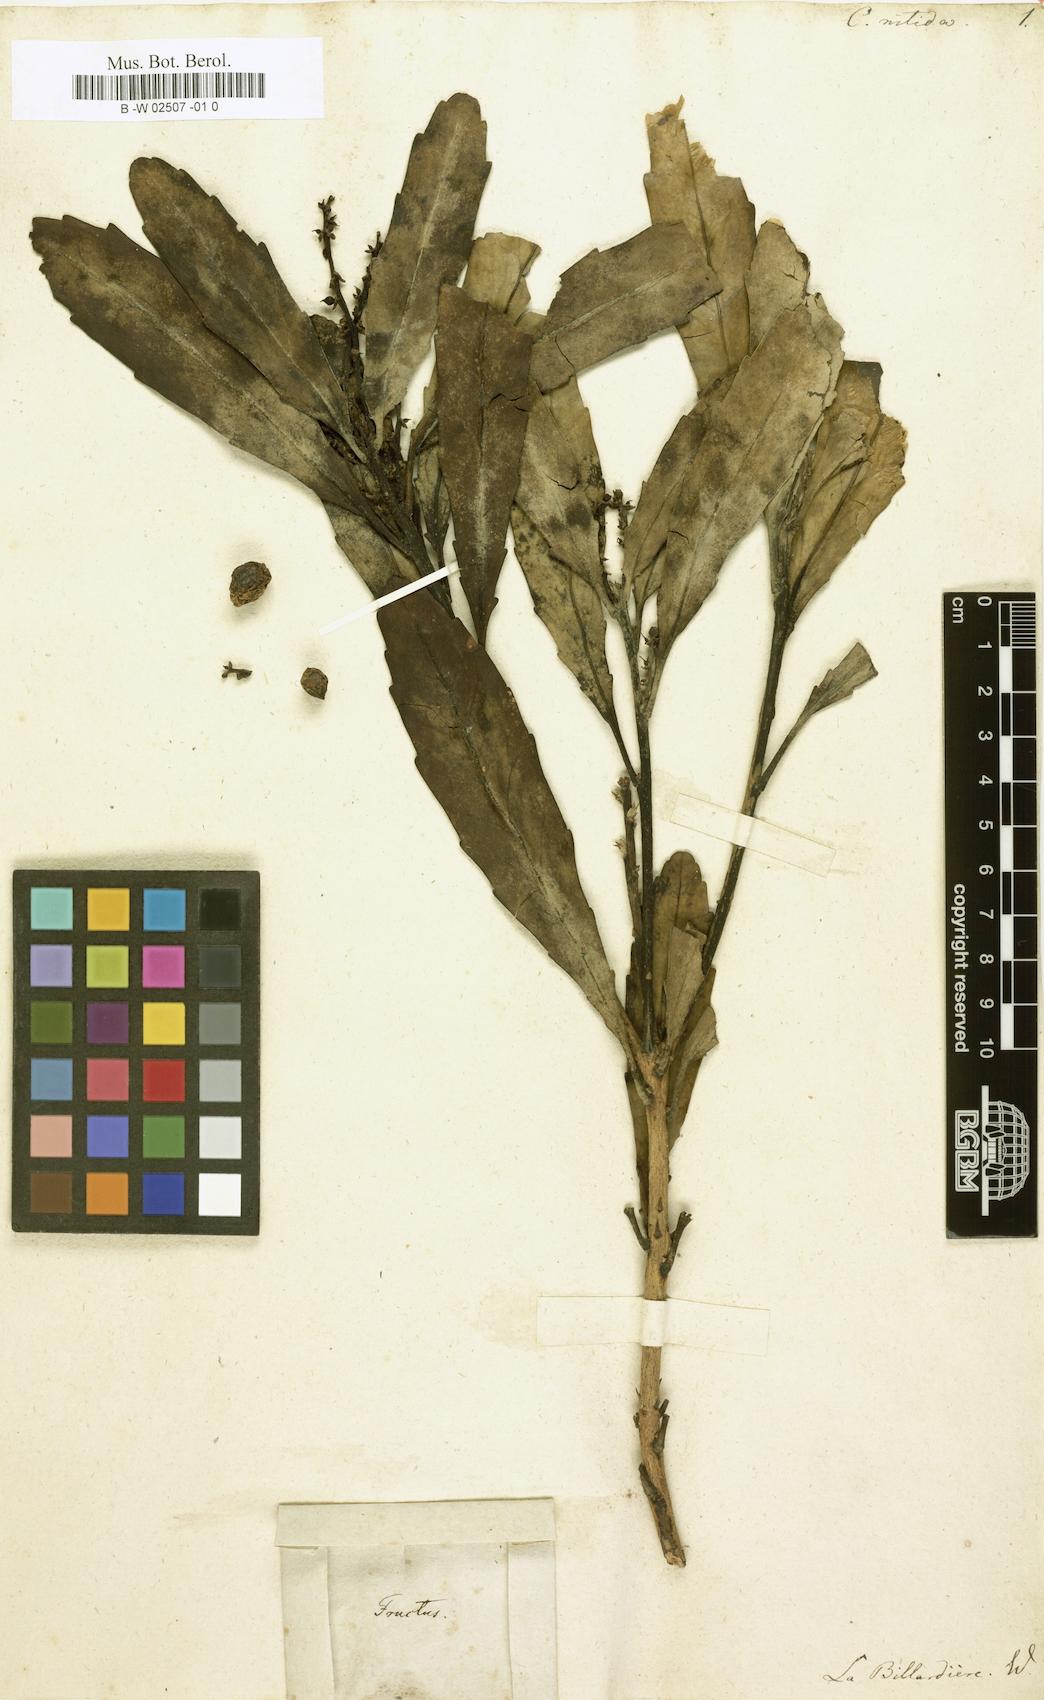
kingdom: Plantae
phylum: Tracheophyta
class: Magnoliopsida
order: Proteales
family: Proteaceae
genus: Cenarrhenes
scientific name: Cenarrhenes nitida
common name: Native plum
